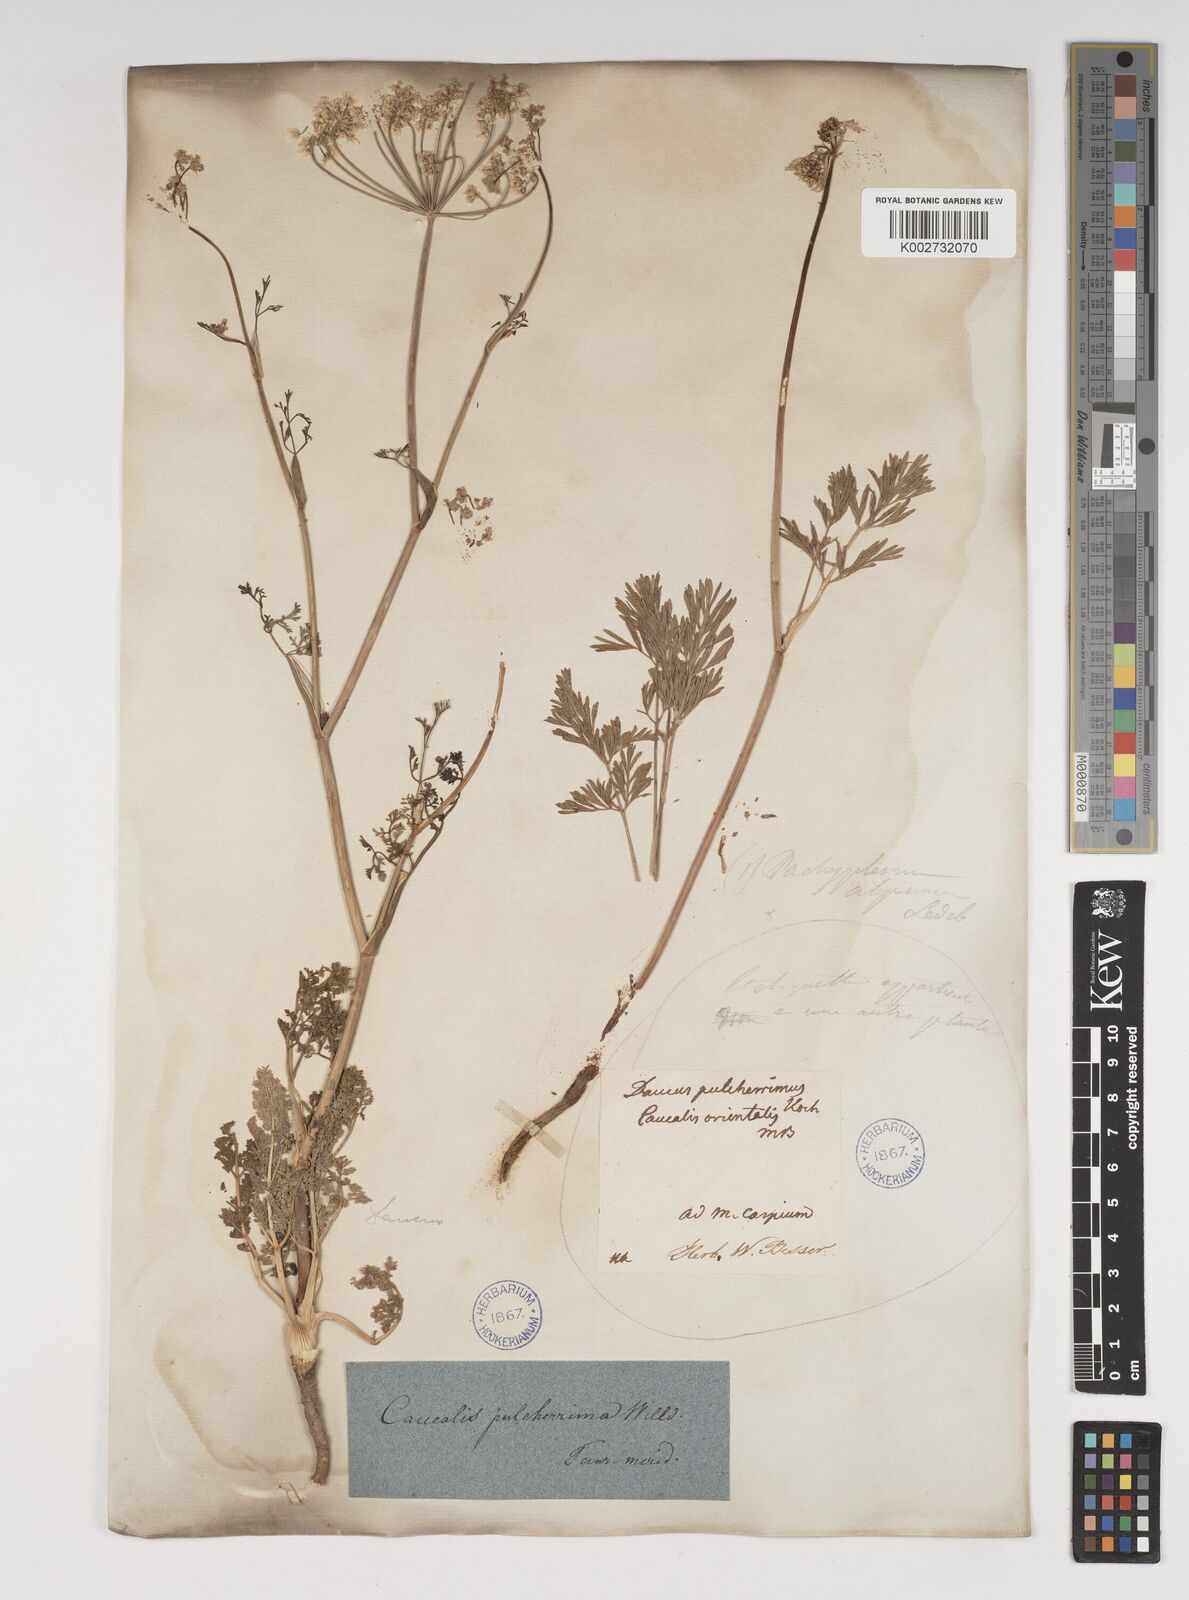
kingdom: Plantae
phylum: Tracheophyta
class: Magnoliopsida
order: Apiales
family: Apiaceae
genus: Astrodaucus
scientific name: Astrodaucus
